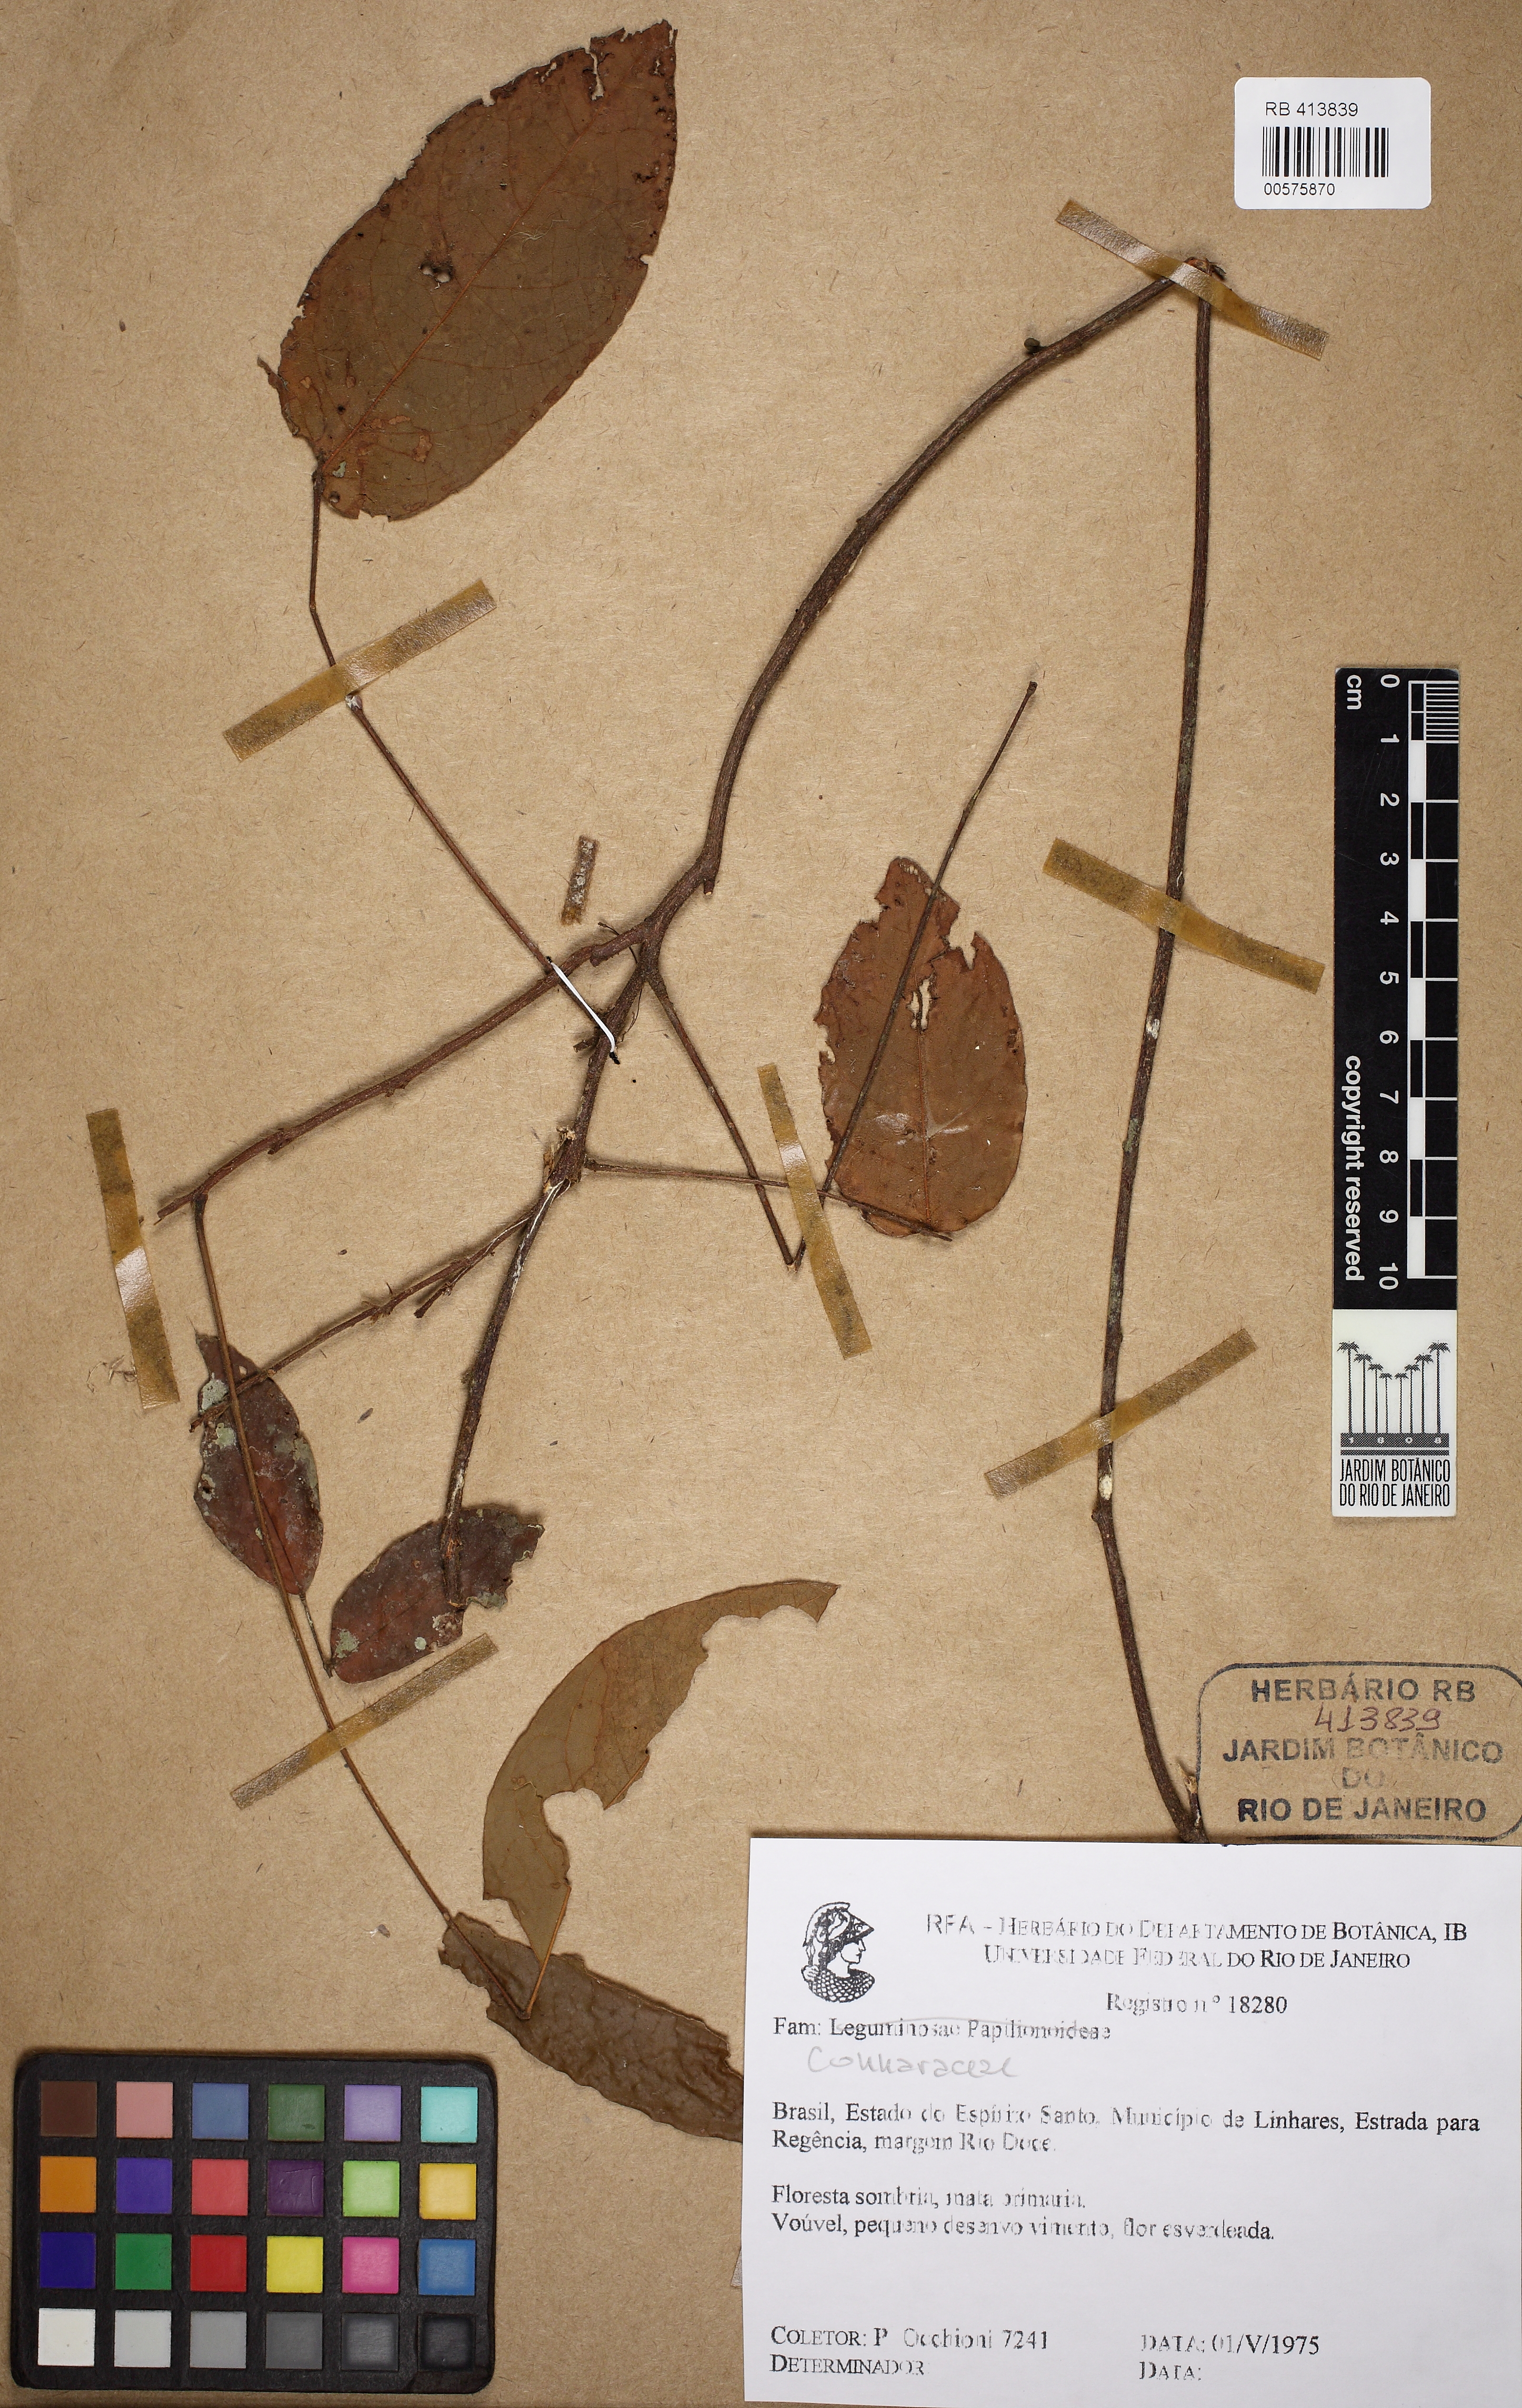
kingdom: Plantae
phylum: Tracheophyta
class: Magnoliopsida
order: Oxalidales
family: Connaraceae
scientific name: Connaraceae
